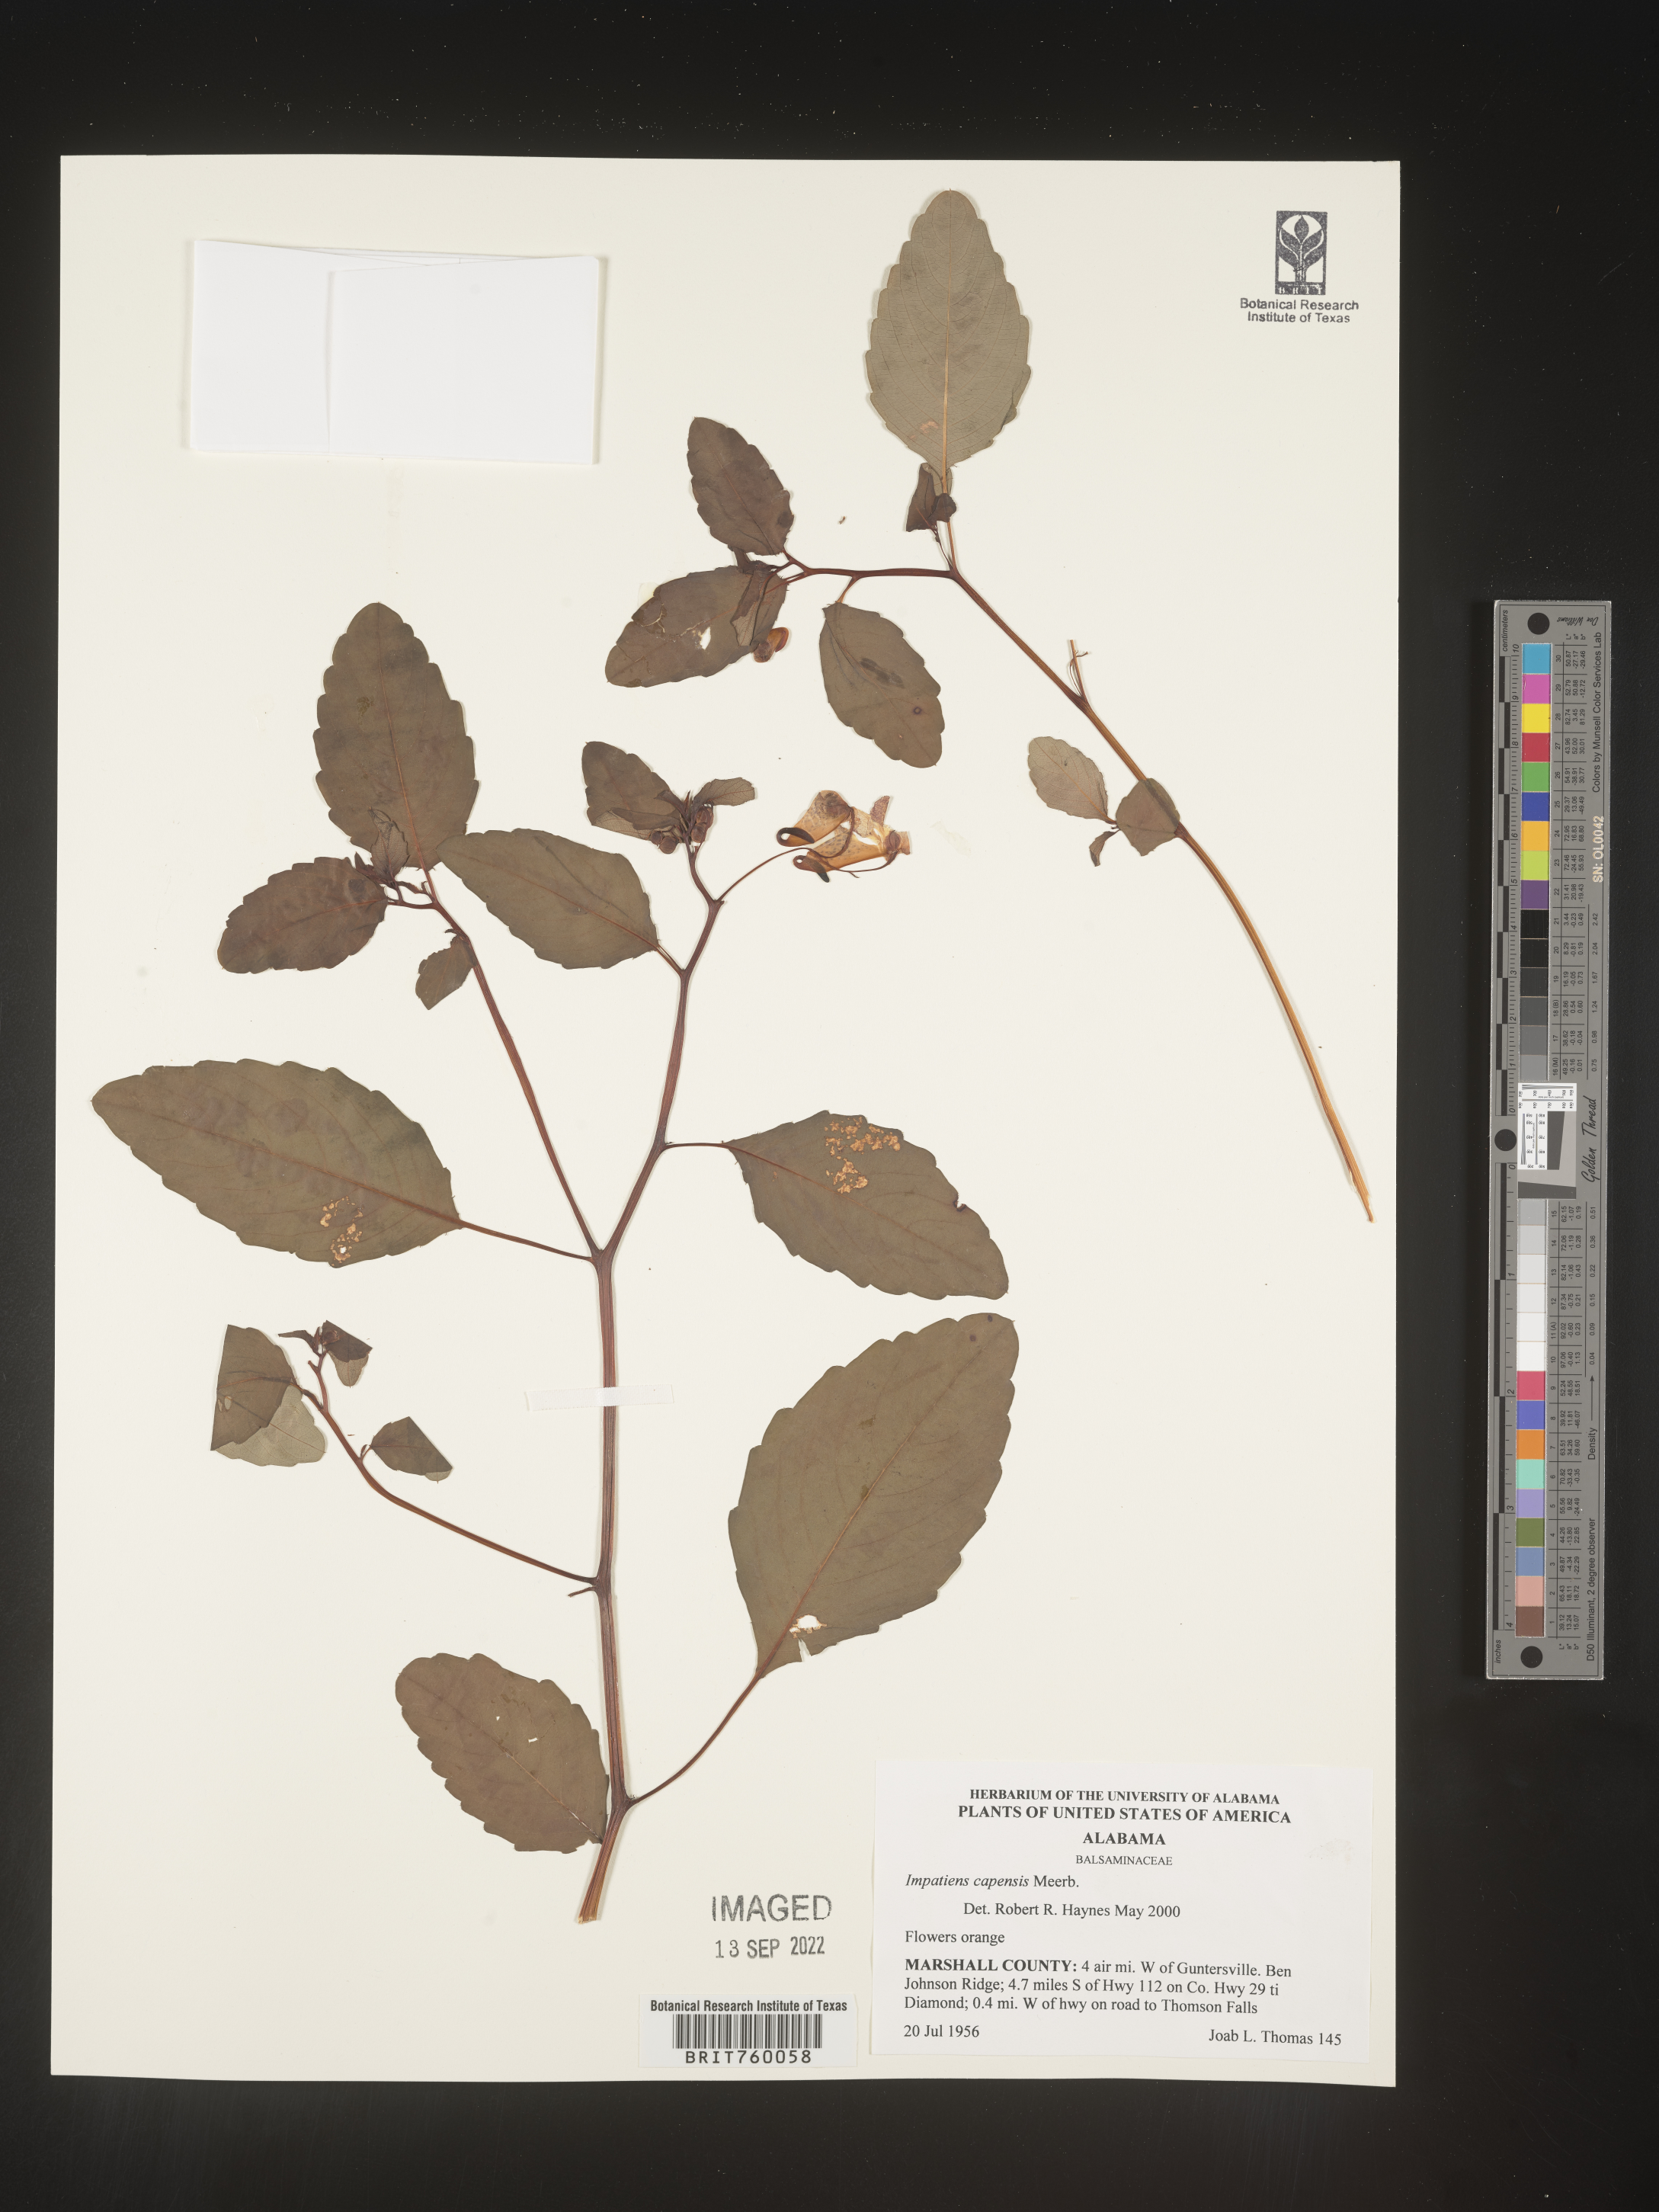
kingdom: Plantae
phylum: Tracheophyta
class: Magnoliopsida
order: Ericales
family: Balsaminaceae
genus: Impatiens
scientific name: Impatiens capensis
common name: Orange balsam
